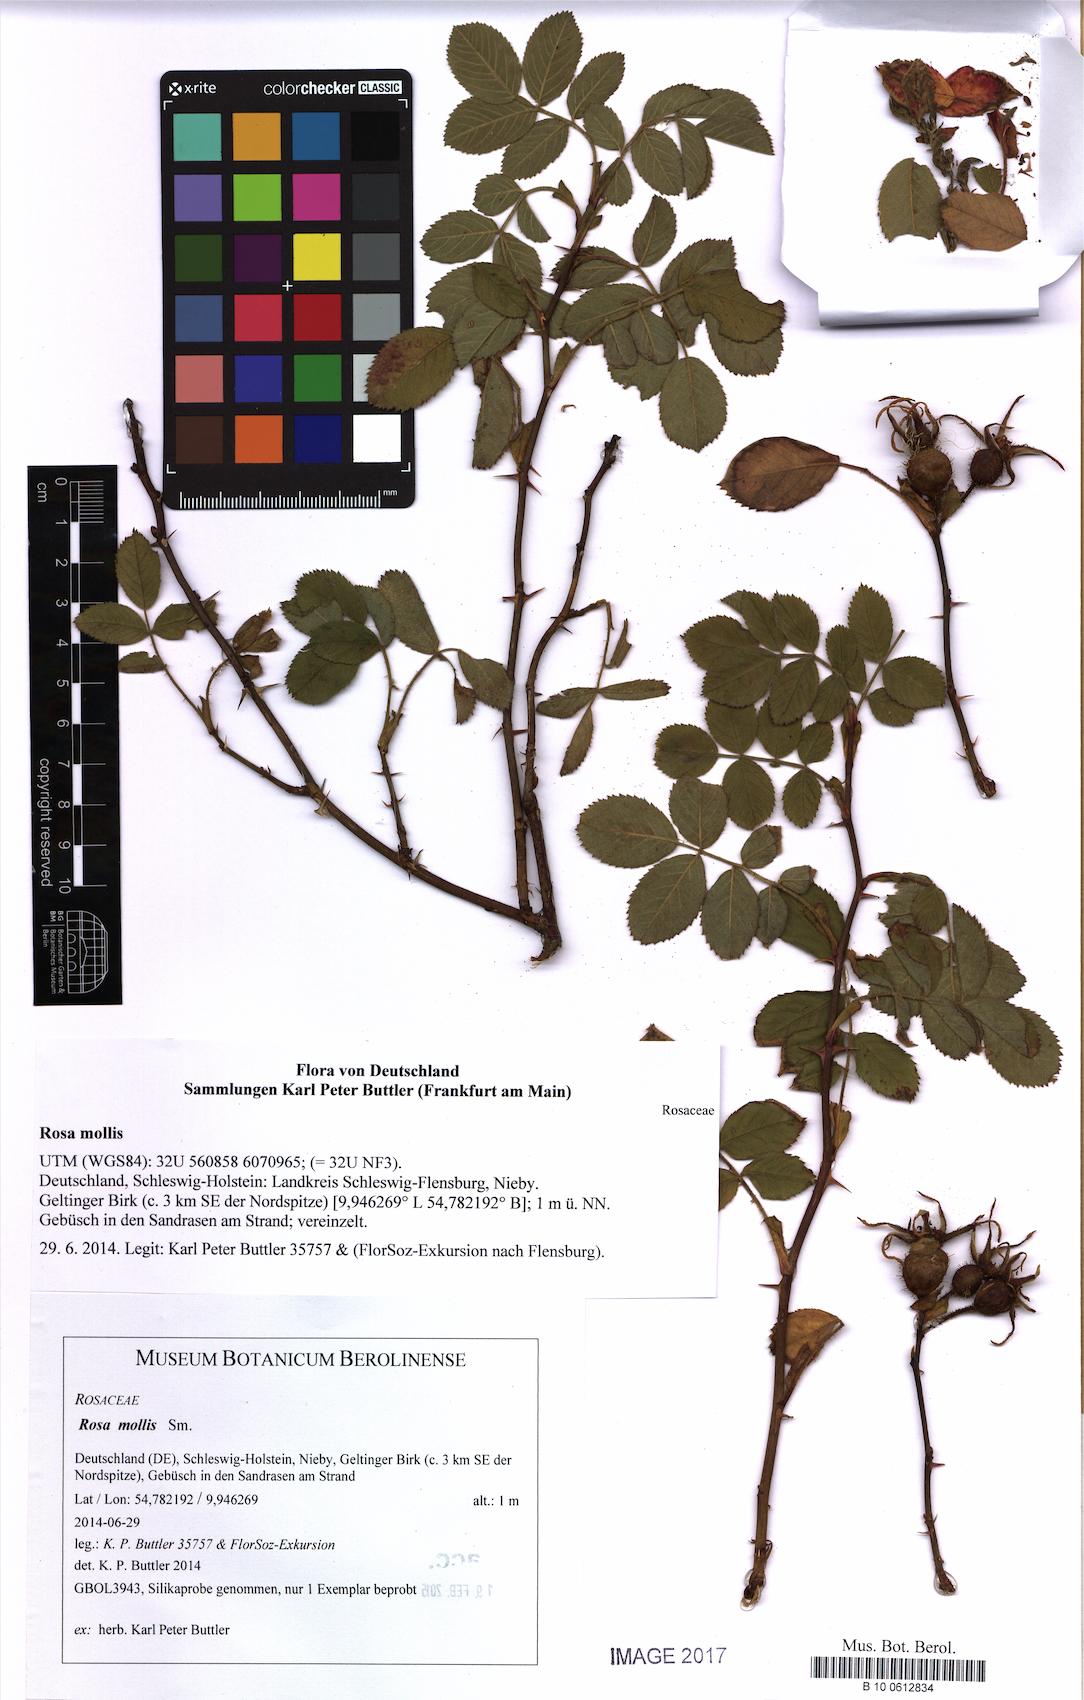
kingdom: Plantae
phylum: Tracheophyta
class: Magnoliopsida
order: Rosales
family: Rosaceae
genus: Rosa
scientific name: Rosa mollis
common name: Rose
